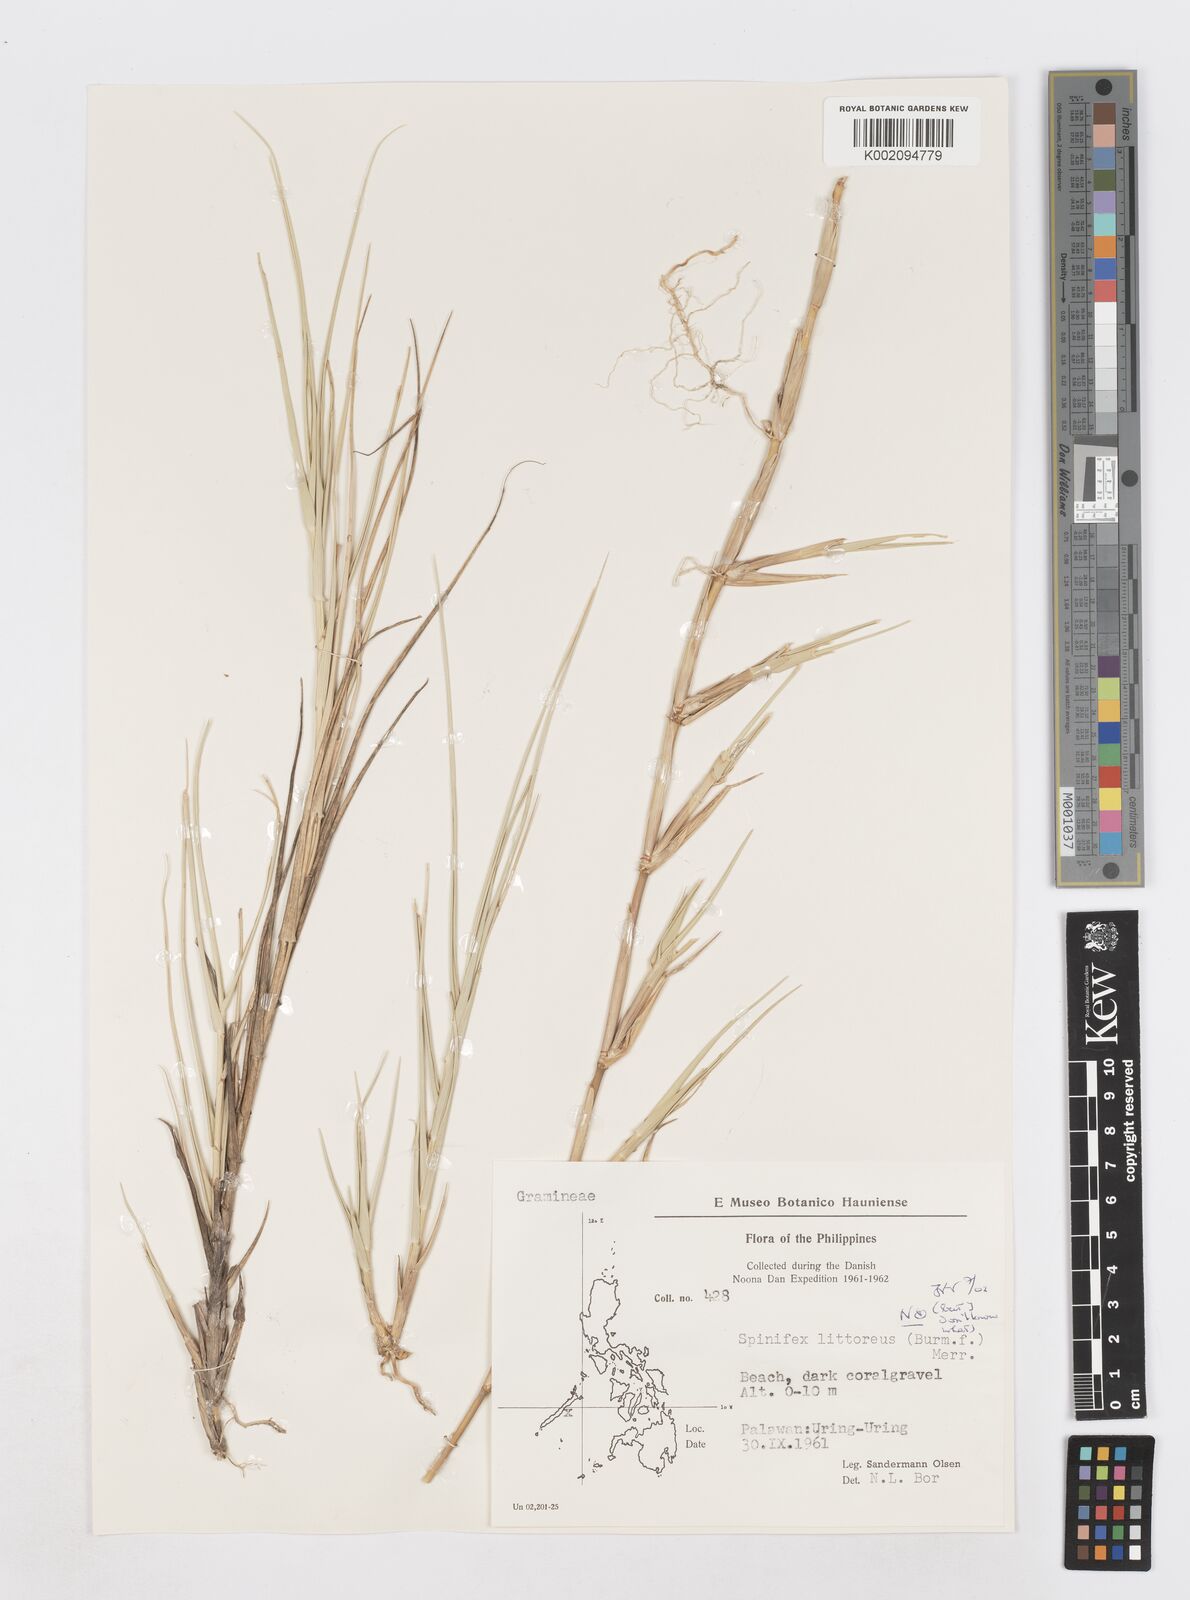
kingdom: Plantae
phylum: Tracheophyta
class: Liliopsida
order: Poales
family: Poaceae
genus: Sporobolus
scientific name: Sporobolus virginicus
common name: Beach dropseed
